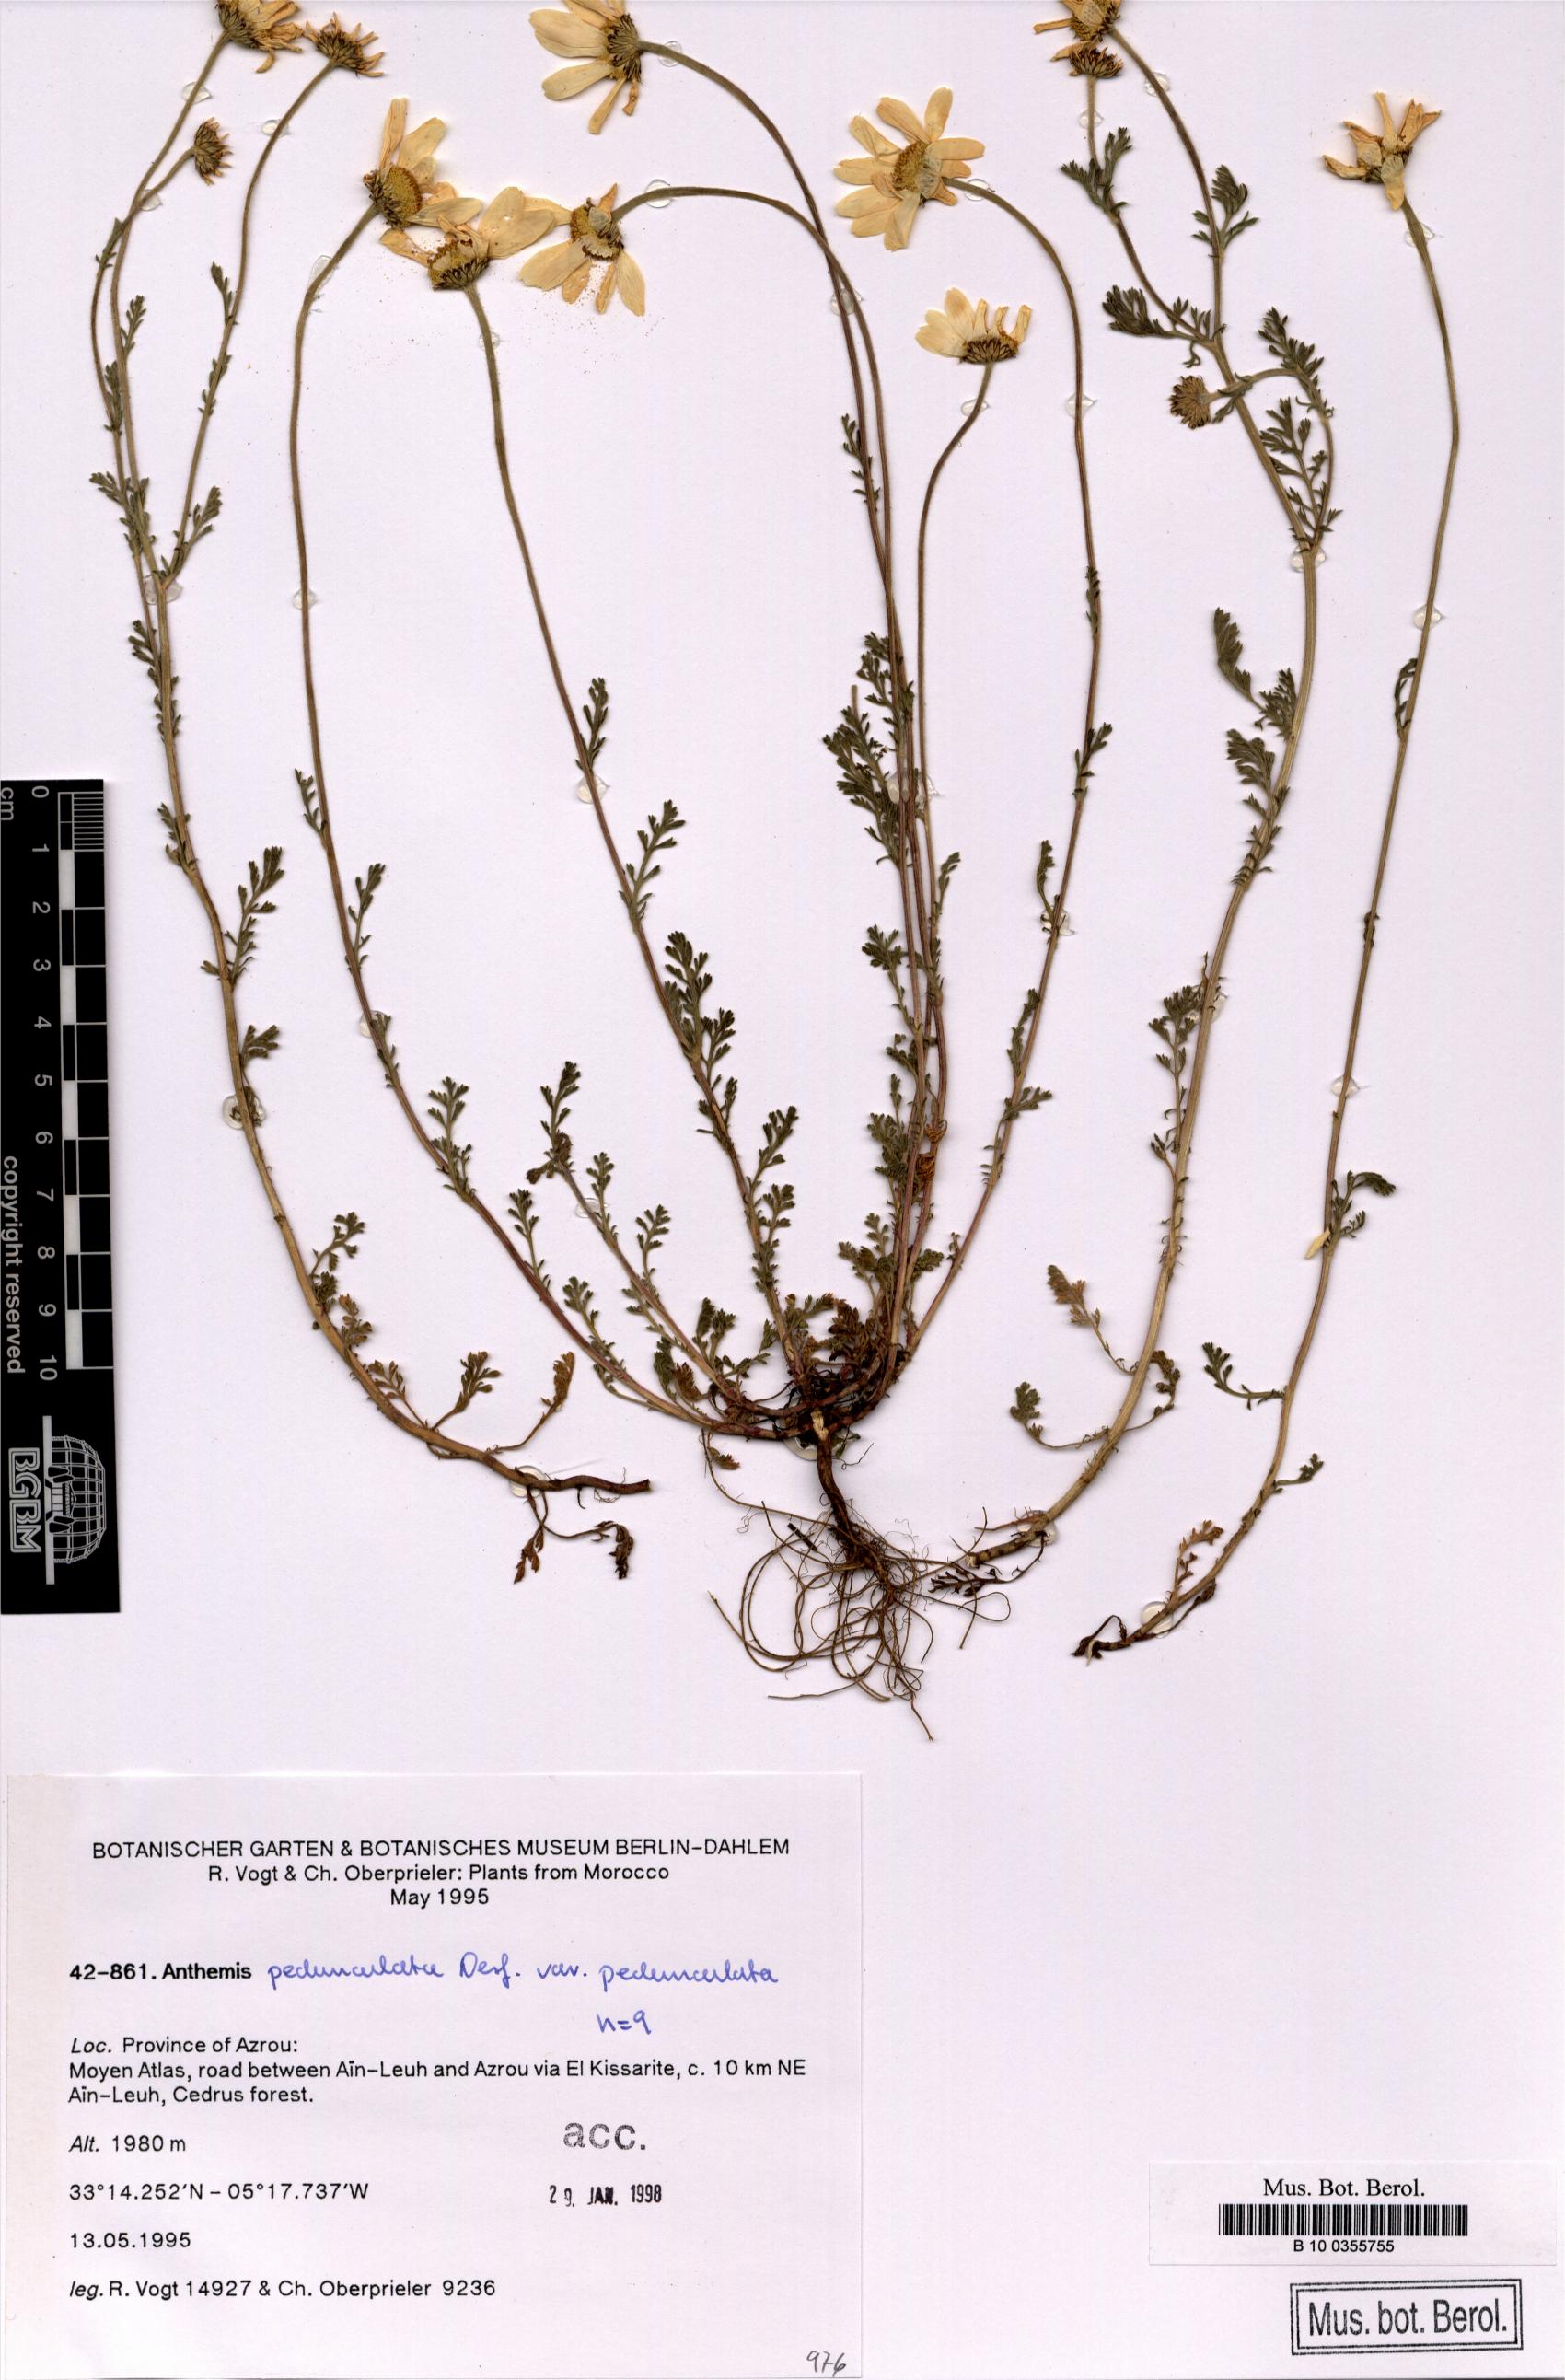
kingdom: Plantae
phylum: Tracheophyta
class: Magnoliopsida
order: Asterales
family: Asteraceae
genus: Anthemis
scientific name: Anthemis pedunculata
